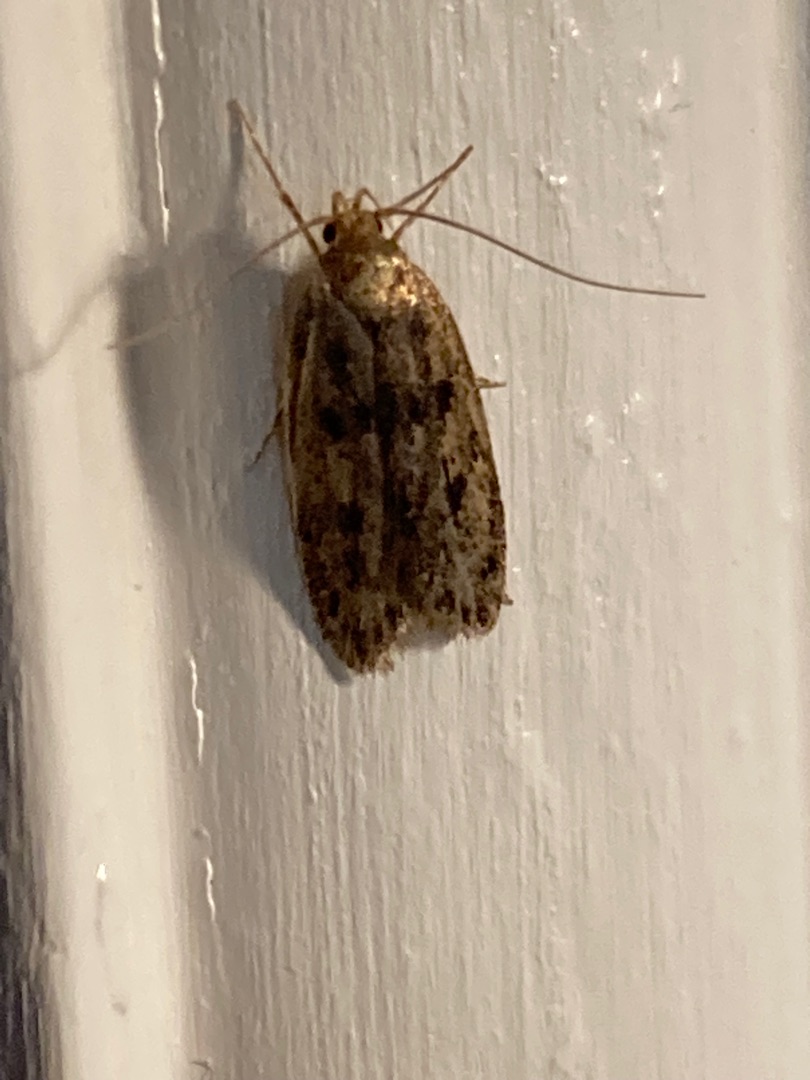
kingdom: Animalia
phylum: Arthropoda
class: Insecta
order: Lepidoptera
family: Oecophoridae
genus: Hofmannophila
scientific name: Hofmannophila pseudospretella
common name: Frømøl
